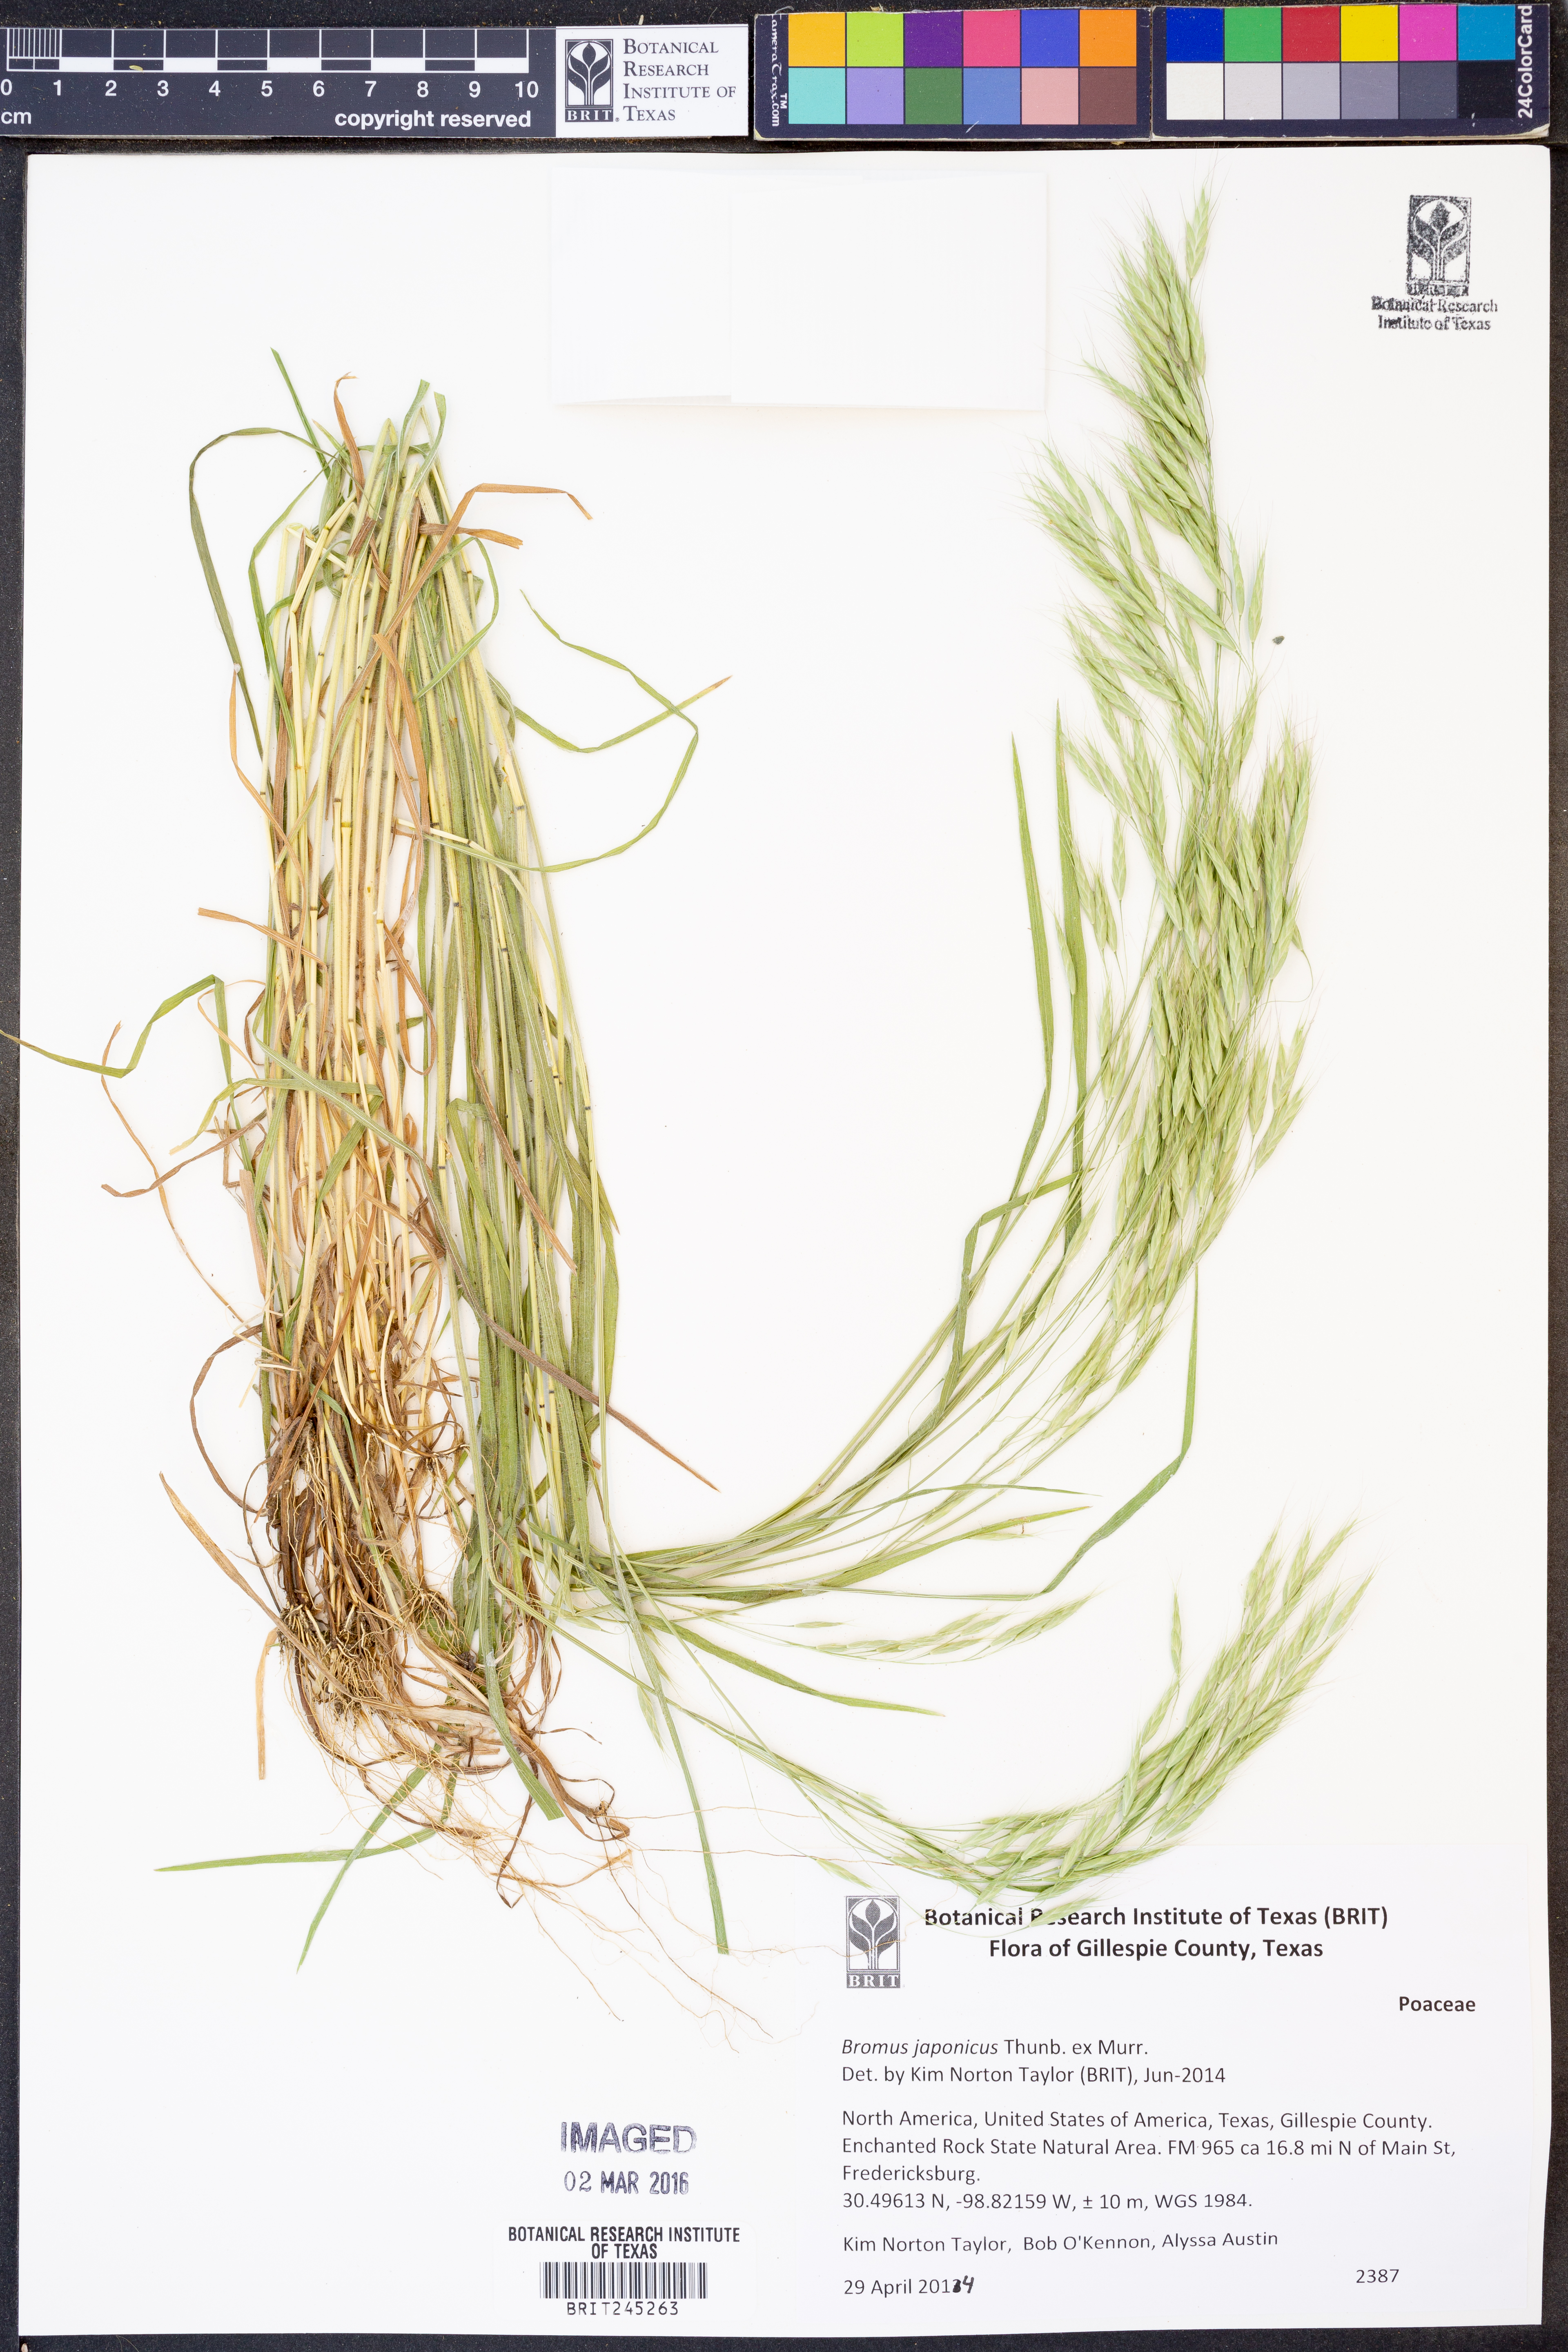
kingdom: Plantae
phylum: Tracheophyta
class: Liliopsida
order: Poales
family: Poaceae
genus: Bromus
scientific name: Bromus japonicus
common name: Japanese brome
